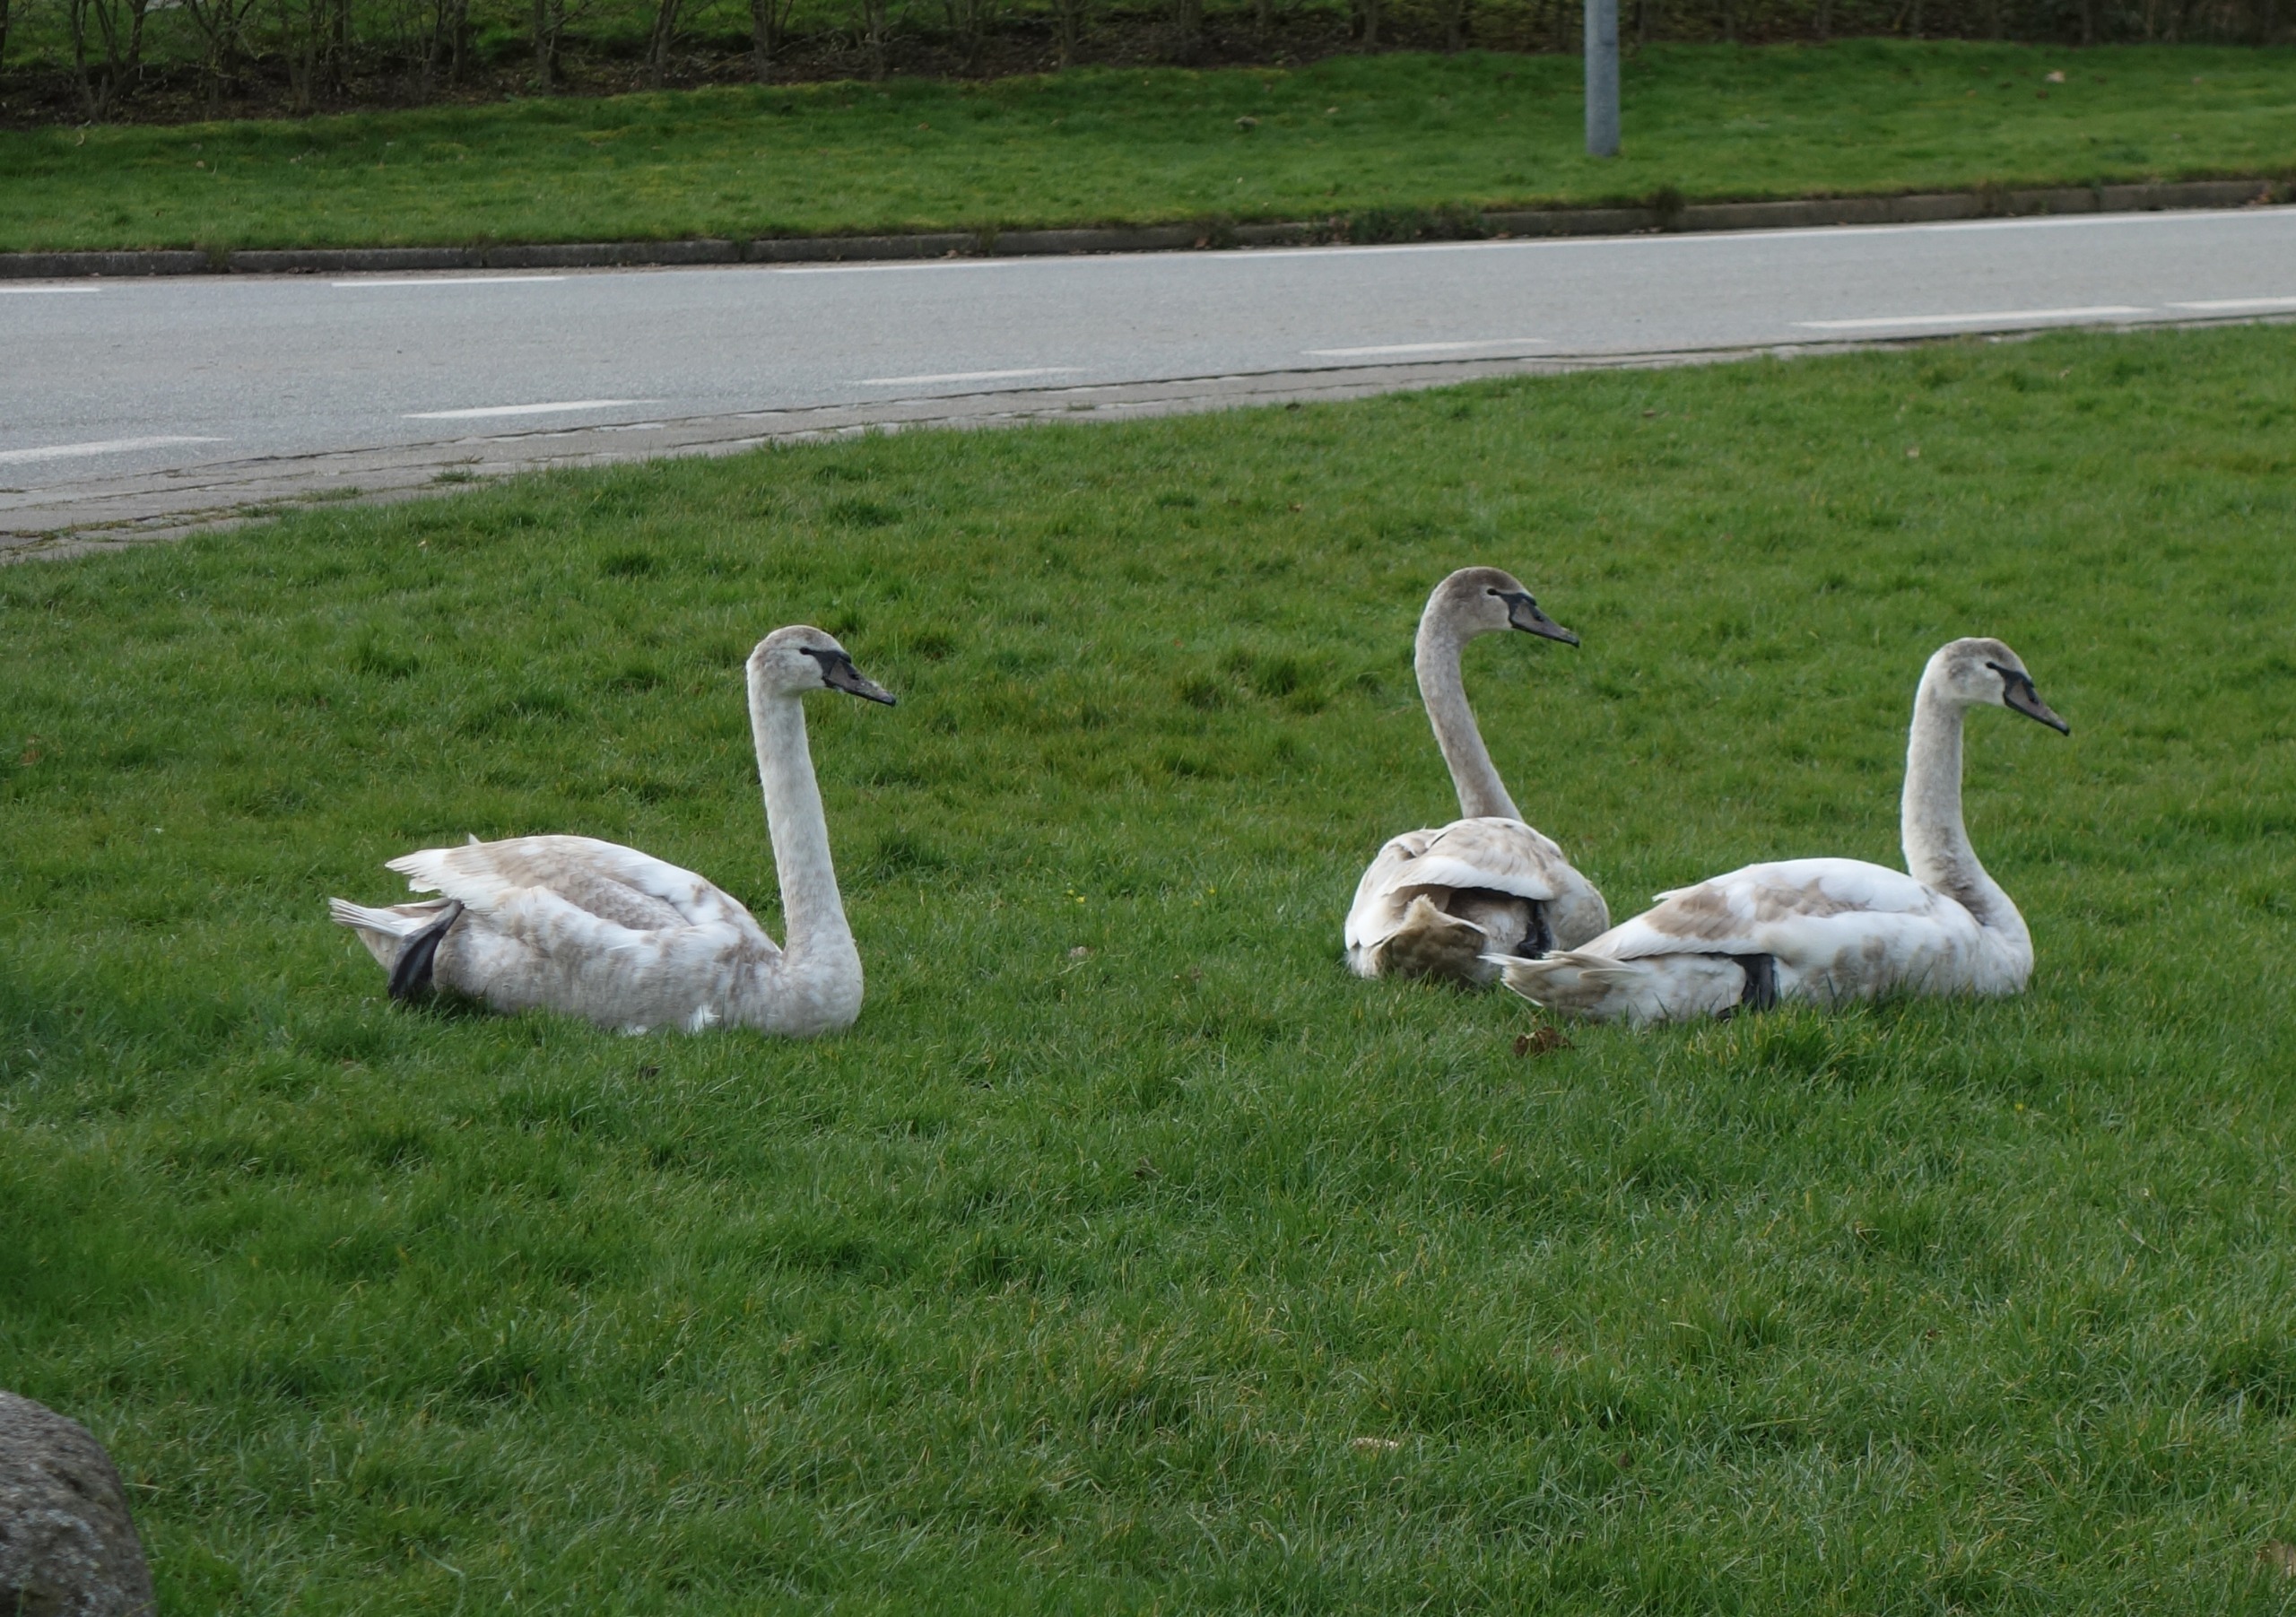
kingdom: Animalia
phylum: Chordata
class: Aves
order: Anseriformes
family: Anatidae
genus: Cygnus
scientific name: Cygnus olor
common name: Knopsvane
